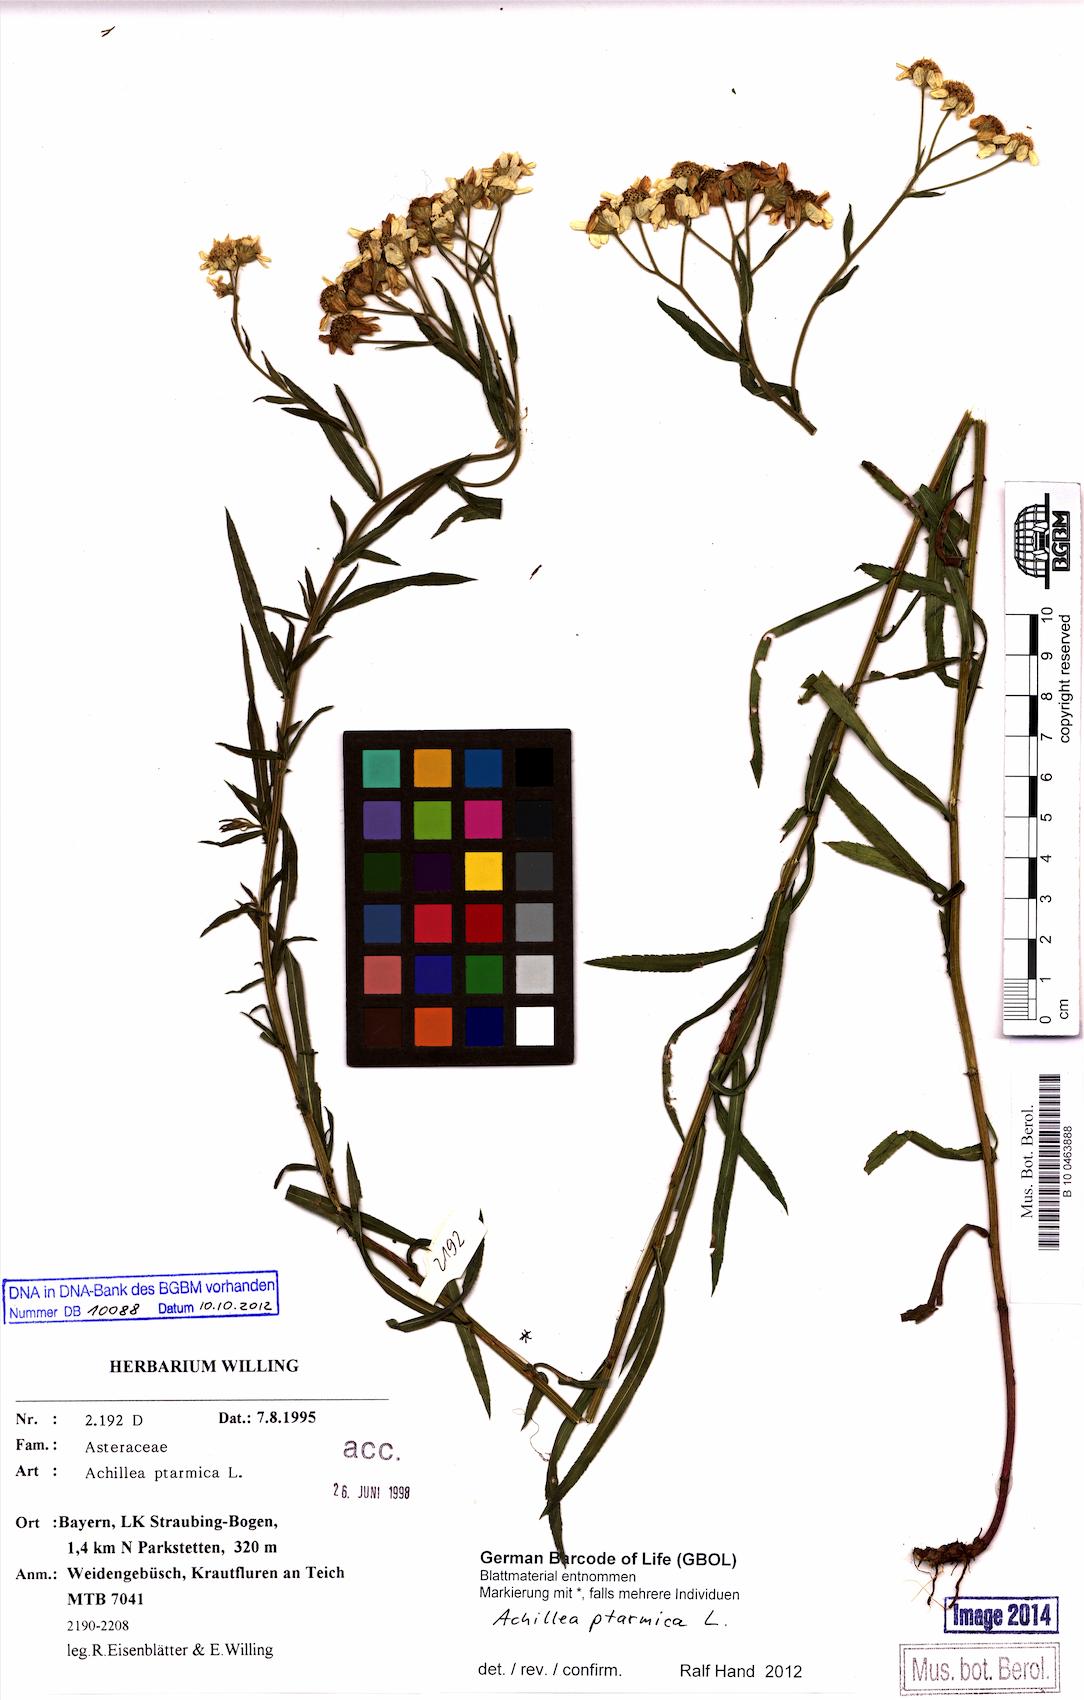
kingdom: Plantae
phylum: Tracheophyta
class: Magnoliopsida
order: Asterales
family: Asteraceae
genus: Achillea
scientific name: Achillea ptarmica
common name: Sneezeweed
